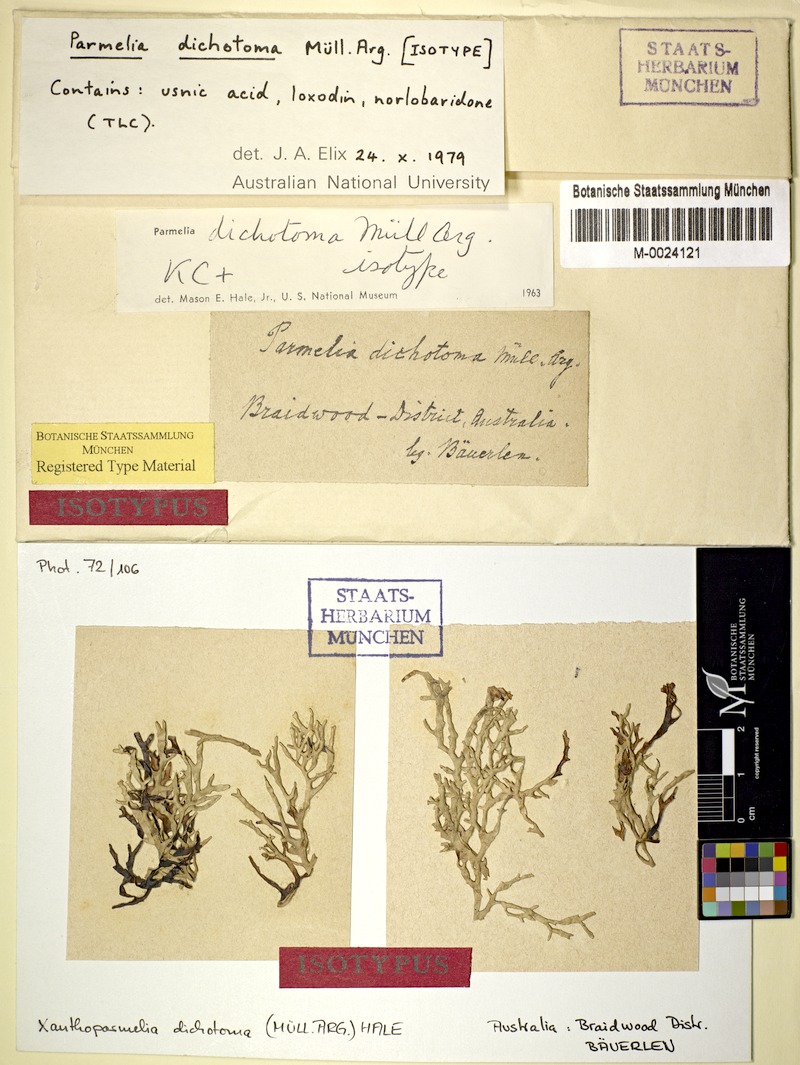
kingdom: Fungi
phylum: Ascomycota
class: Lecanoromycetes
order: Lecanorales
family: Parmeliaceae
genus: Xanthoparmelia
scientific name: Xanthoparmelia dichotoma
